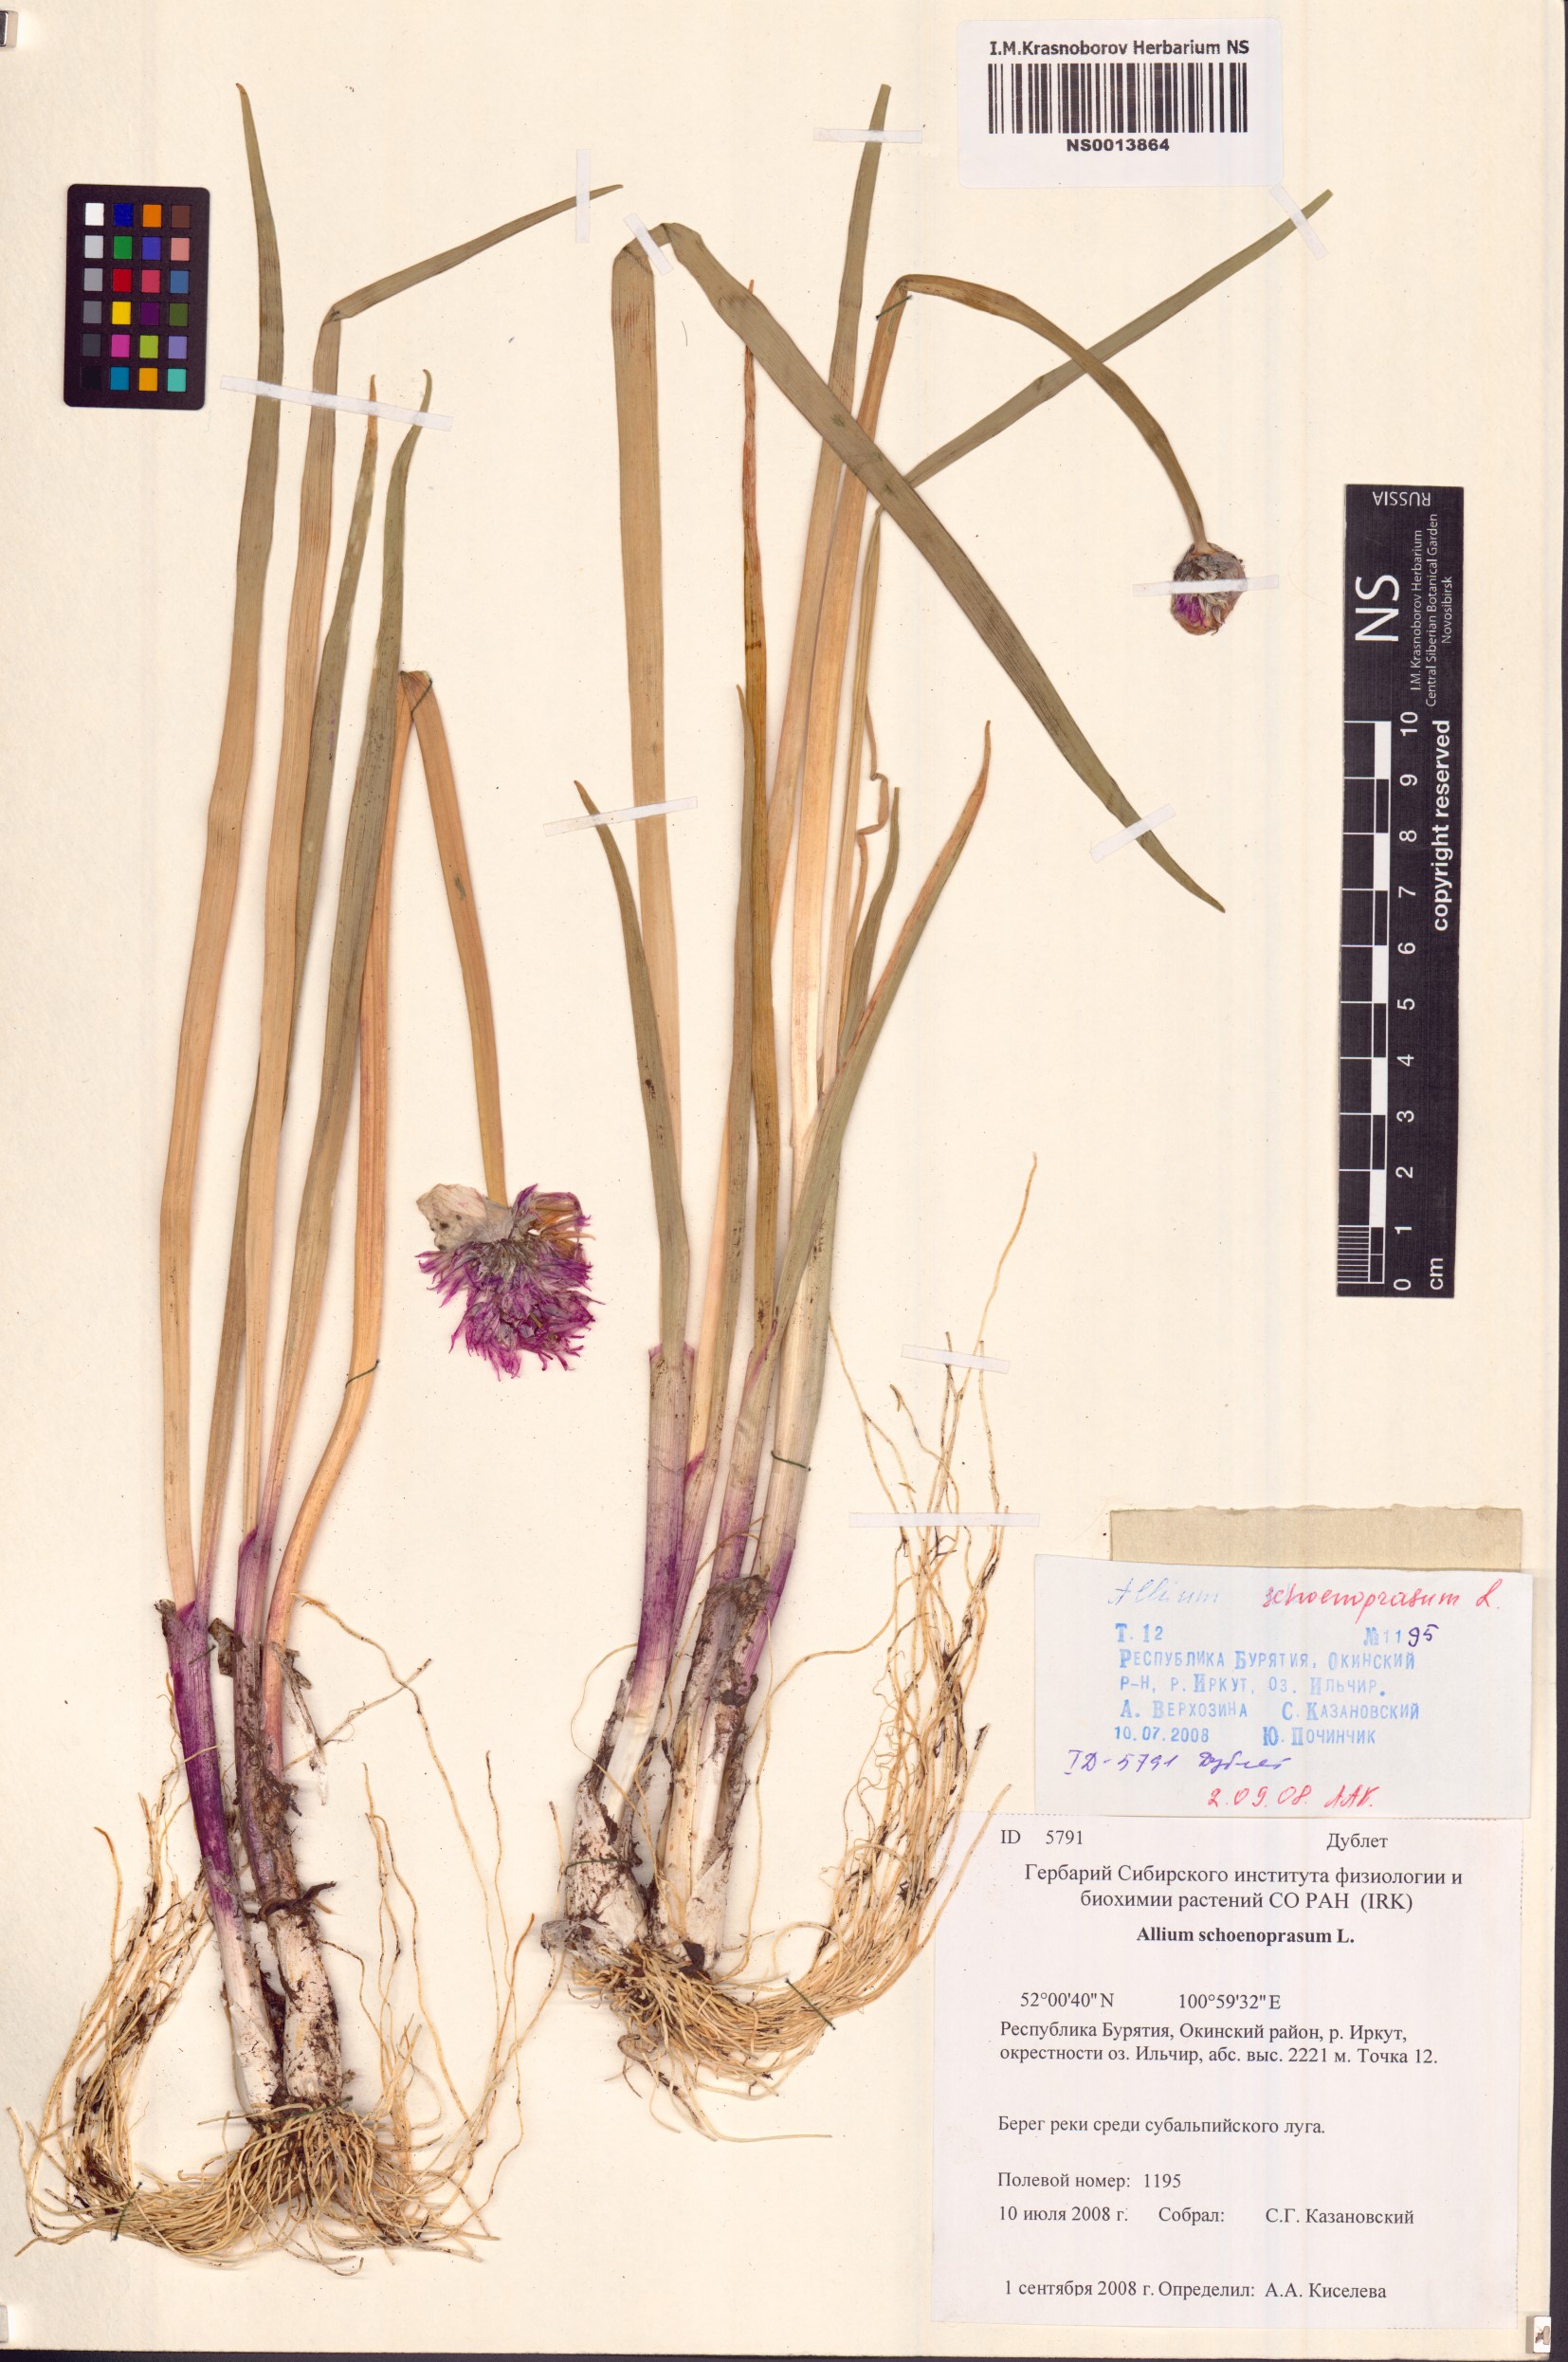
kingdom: Plantae
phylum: Tracheophyta
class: Liliopsida
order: Asparagales
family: Amaryllidaceae
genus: Allium
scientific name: Allium schoenoprasum
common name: Chives
